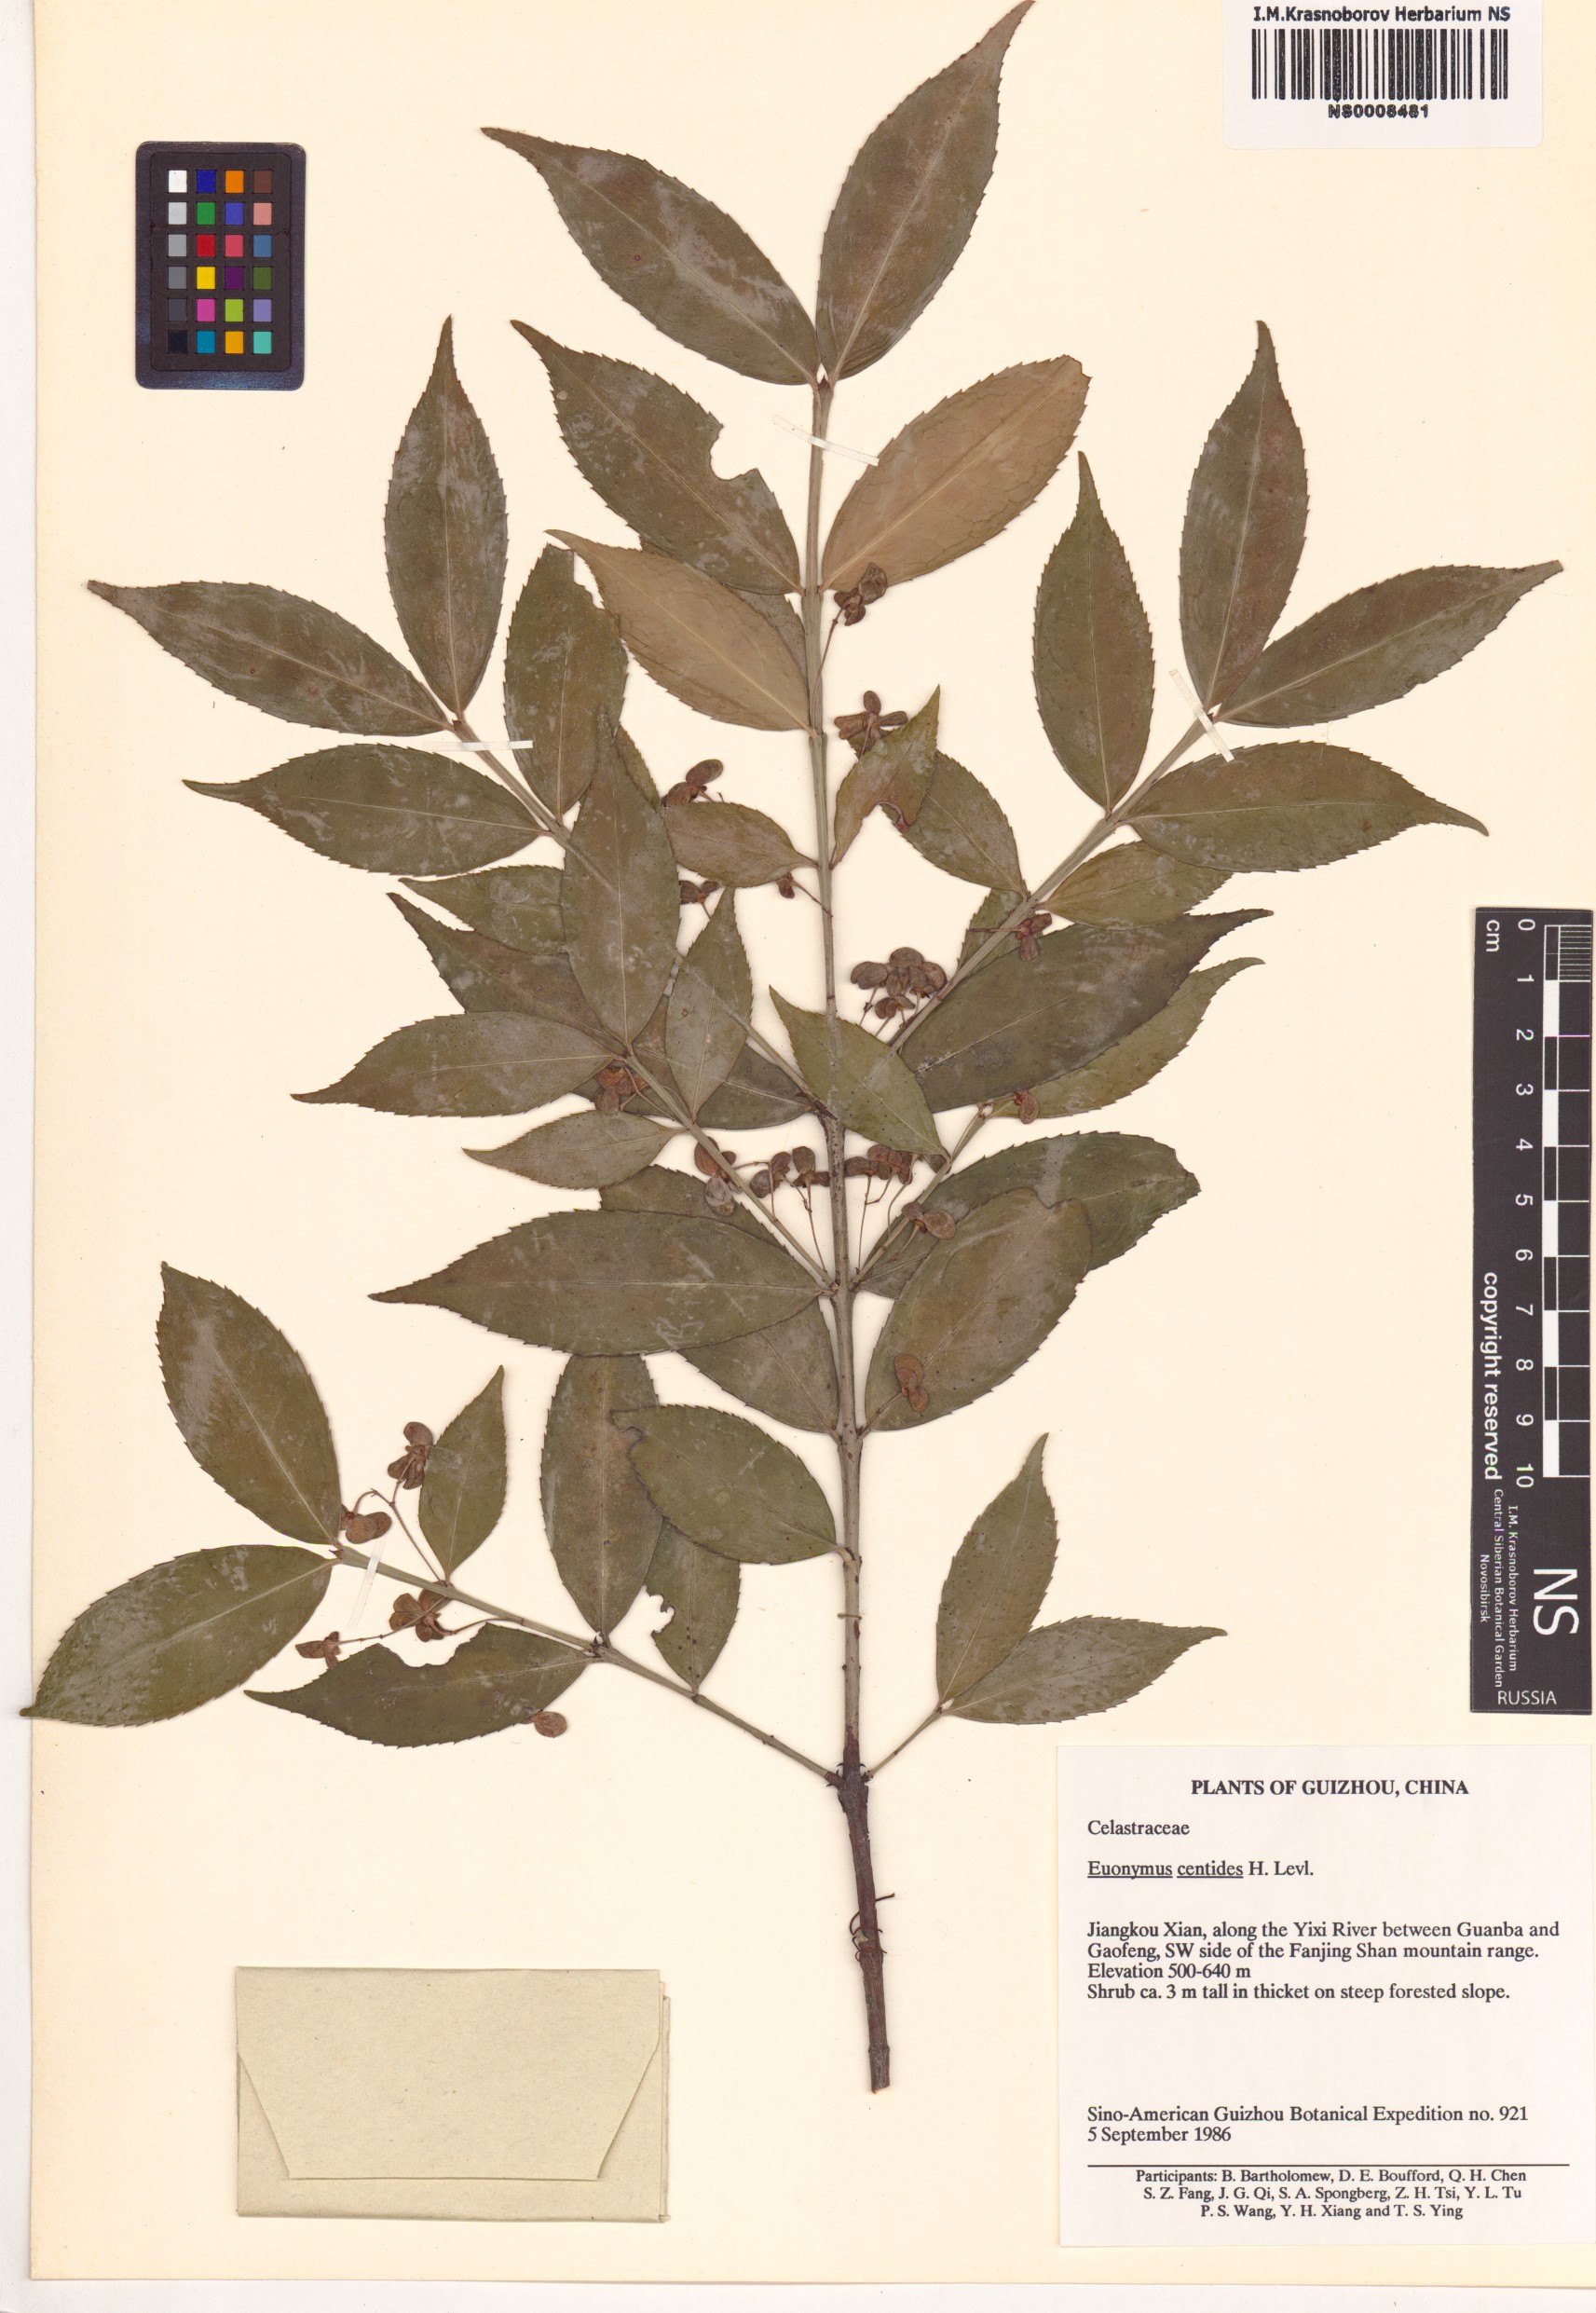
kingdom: Plantae
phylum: Tracheophyta
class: Magnoliopsida
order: Celastrales
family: Celastraceae
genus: Euonymus
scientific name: Euonymus centidens
